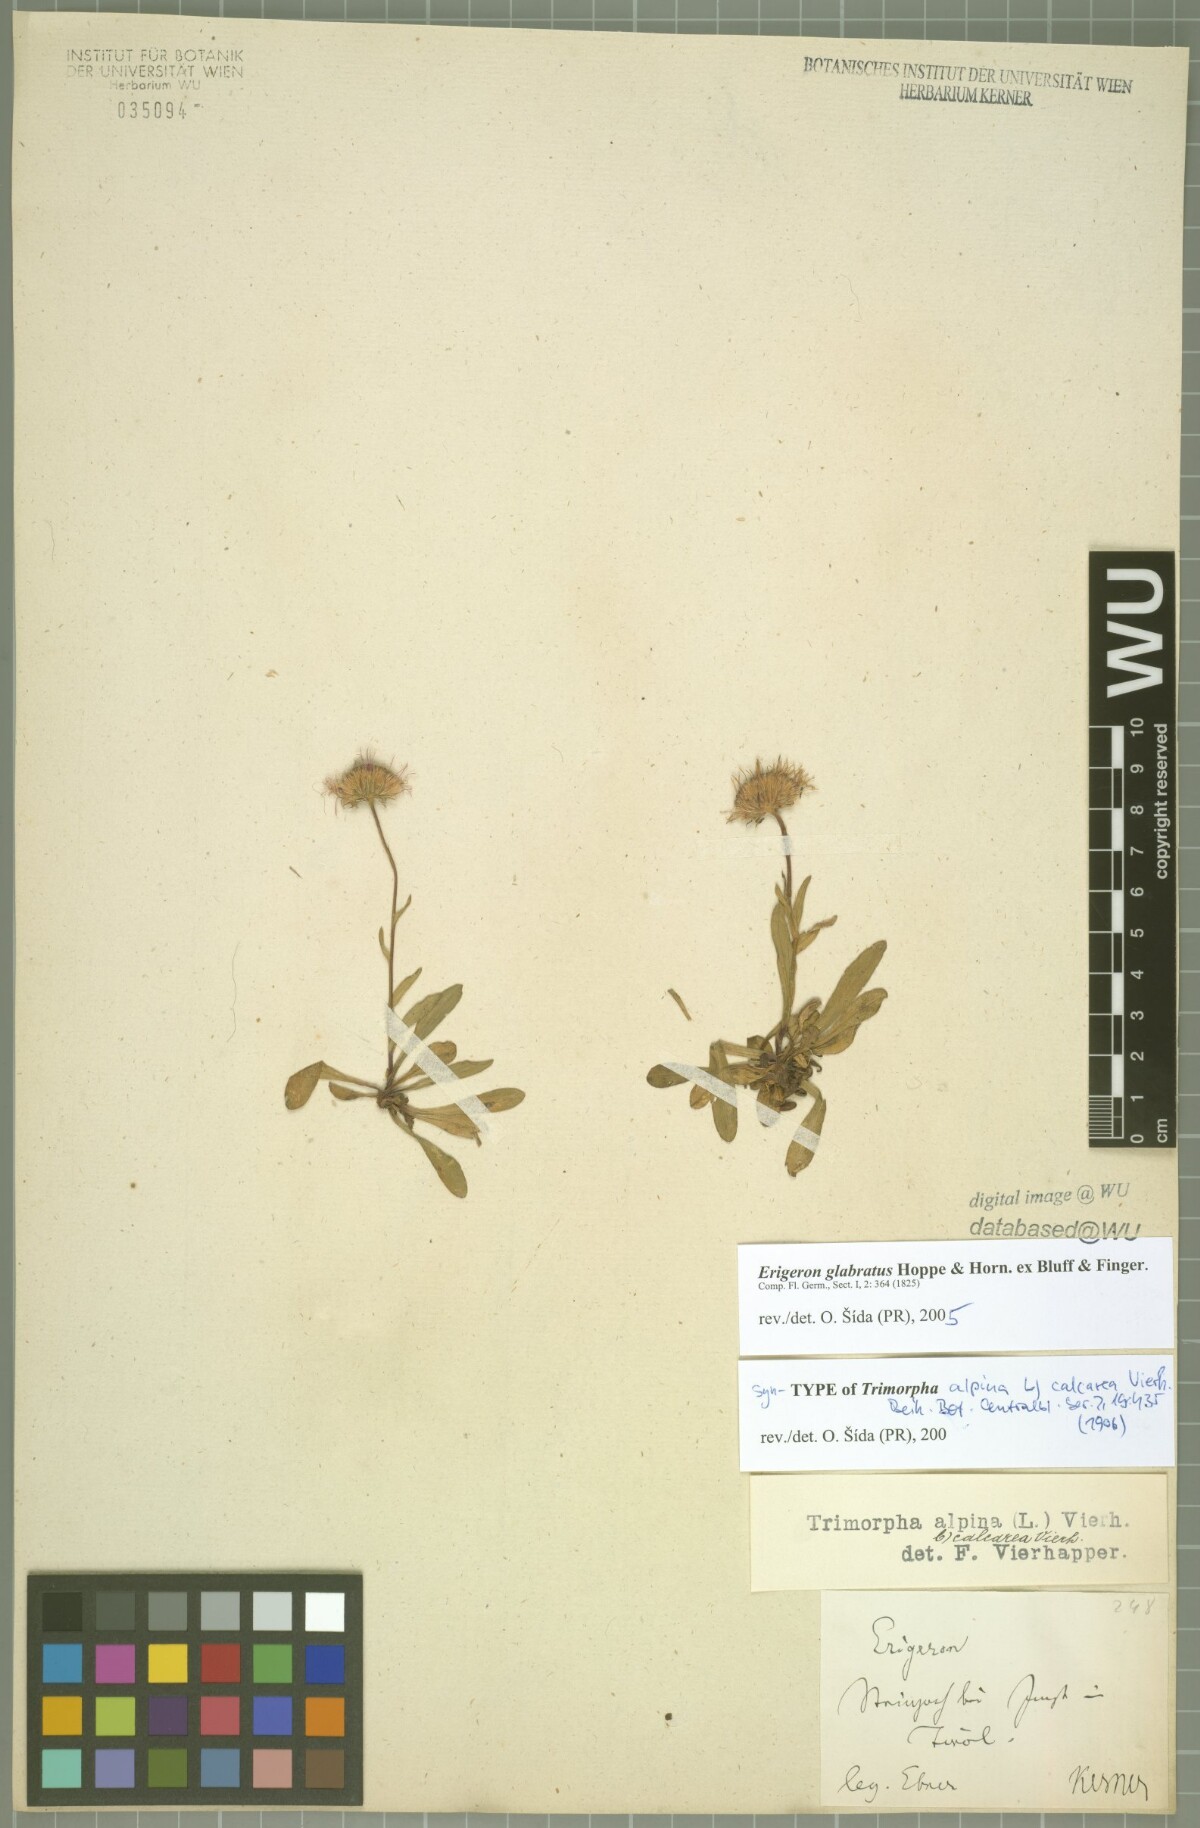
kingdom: Plantae
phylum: Tracheophyta
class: Magnoliopsida
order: Asterales
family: Asteraceae
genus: Erigeron
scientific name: Erigeron alpinus
